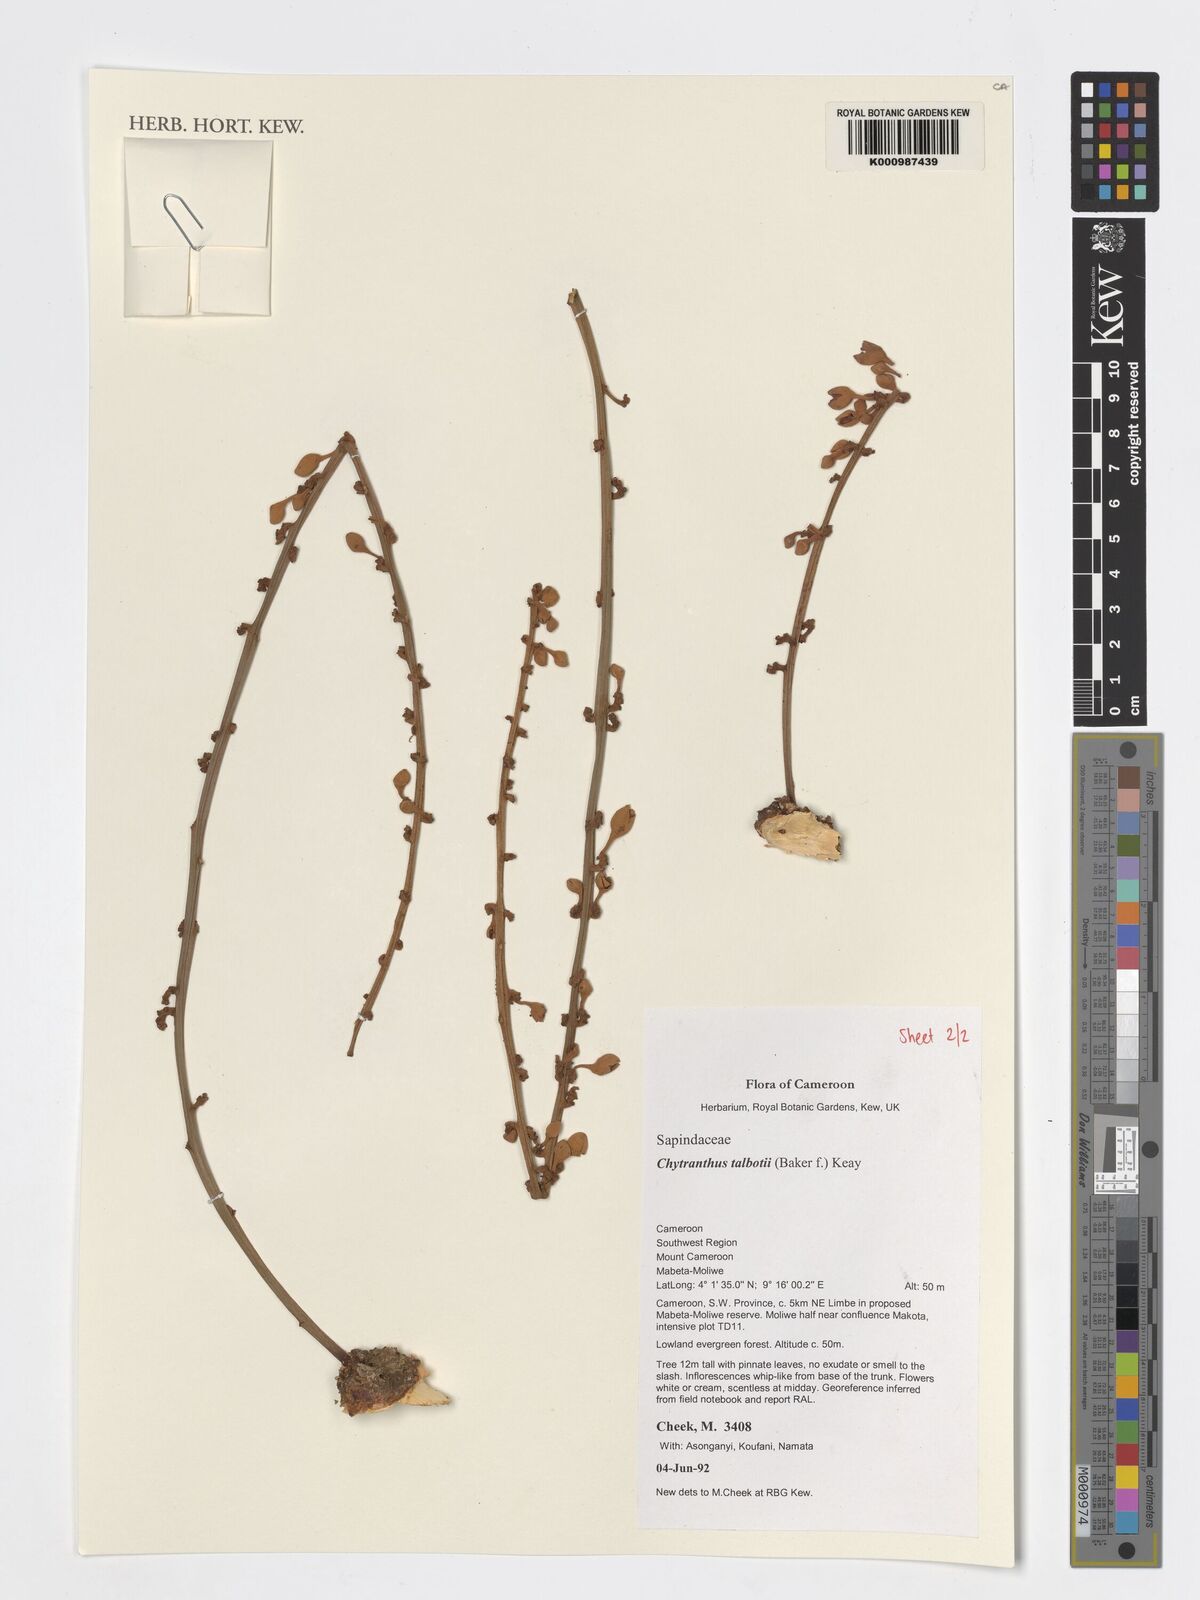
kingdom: Plantae
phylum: Tracheophyta
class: Magnoliopsida
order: Sapindales
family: Sapindaceae
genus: Chytranthus
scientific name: Chytranthus talbotii
